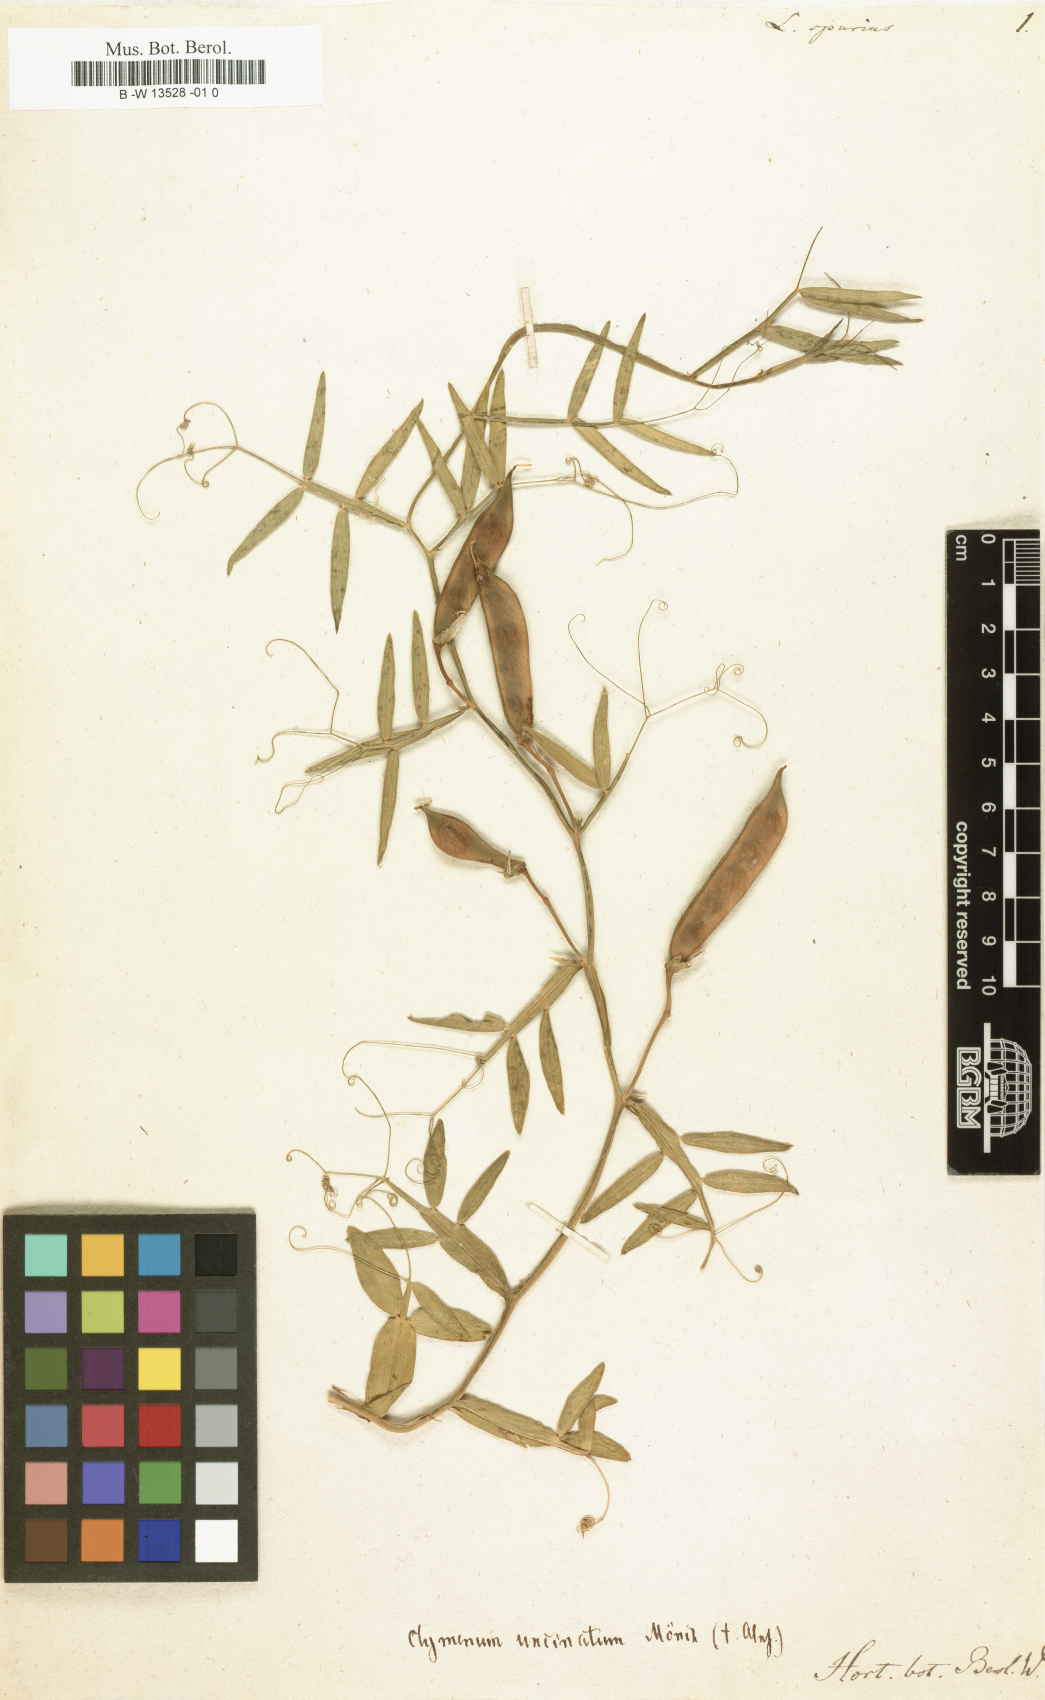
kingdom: Plantae
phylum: Tracheophyta
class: Magnoliopsida
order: Fabales
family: Fabaceae
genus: Lathyrus
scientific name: Lathyrus articulatus
